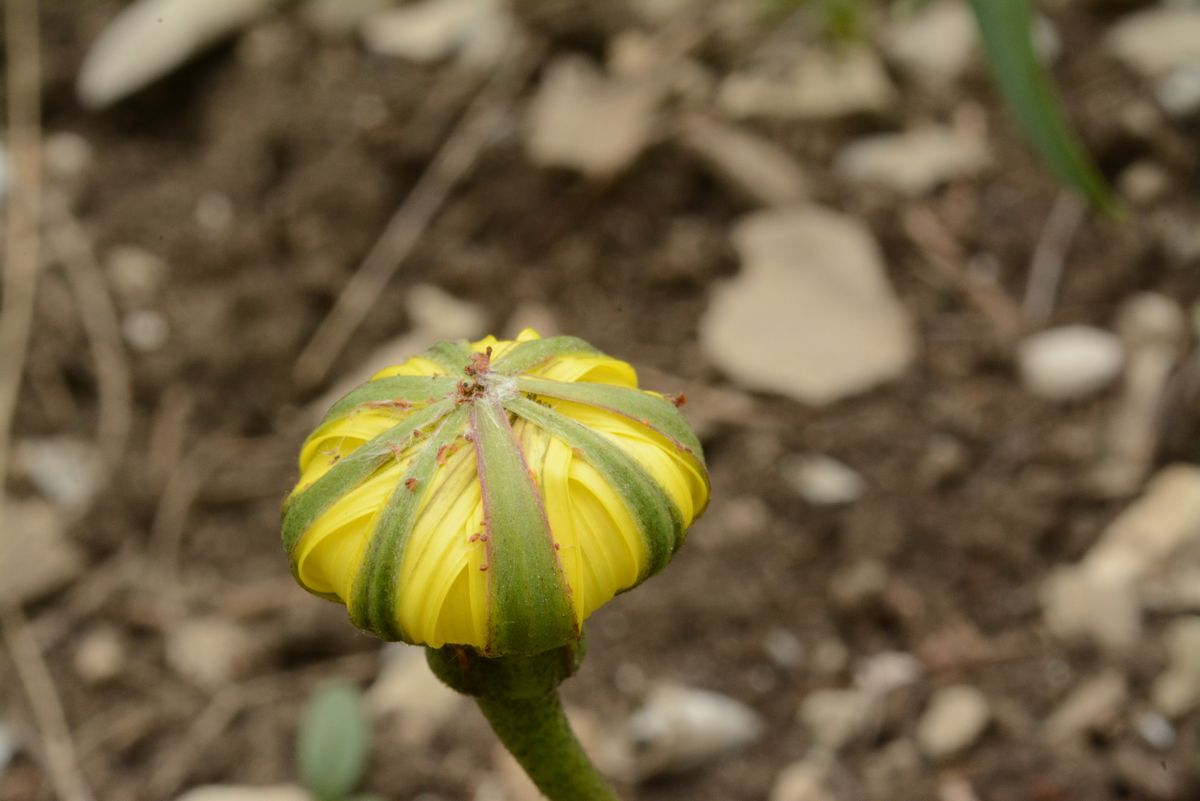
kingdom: Plantae
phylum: Tracheophyta
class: Magnoliopsida
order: Asterales
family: Asteraceae
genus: Tragopogon
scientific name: Tragopogon tuberosus
